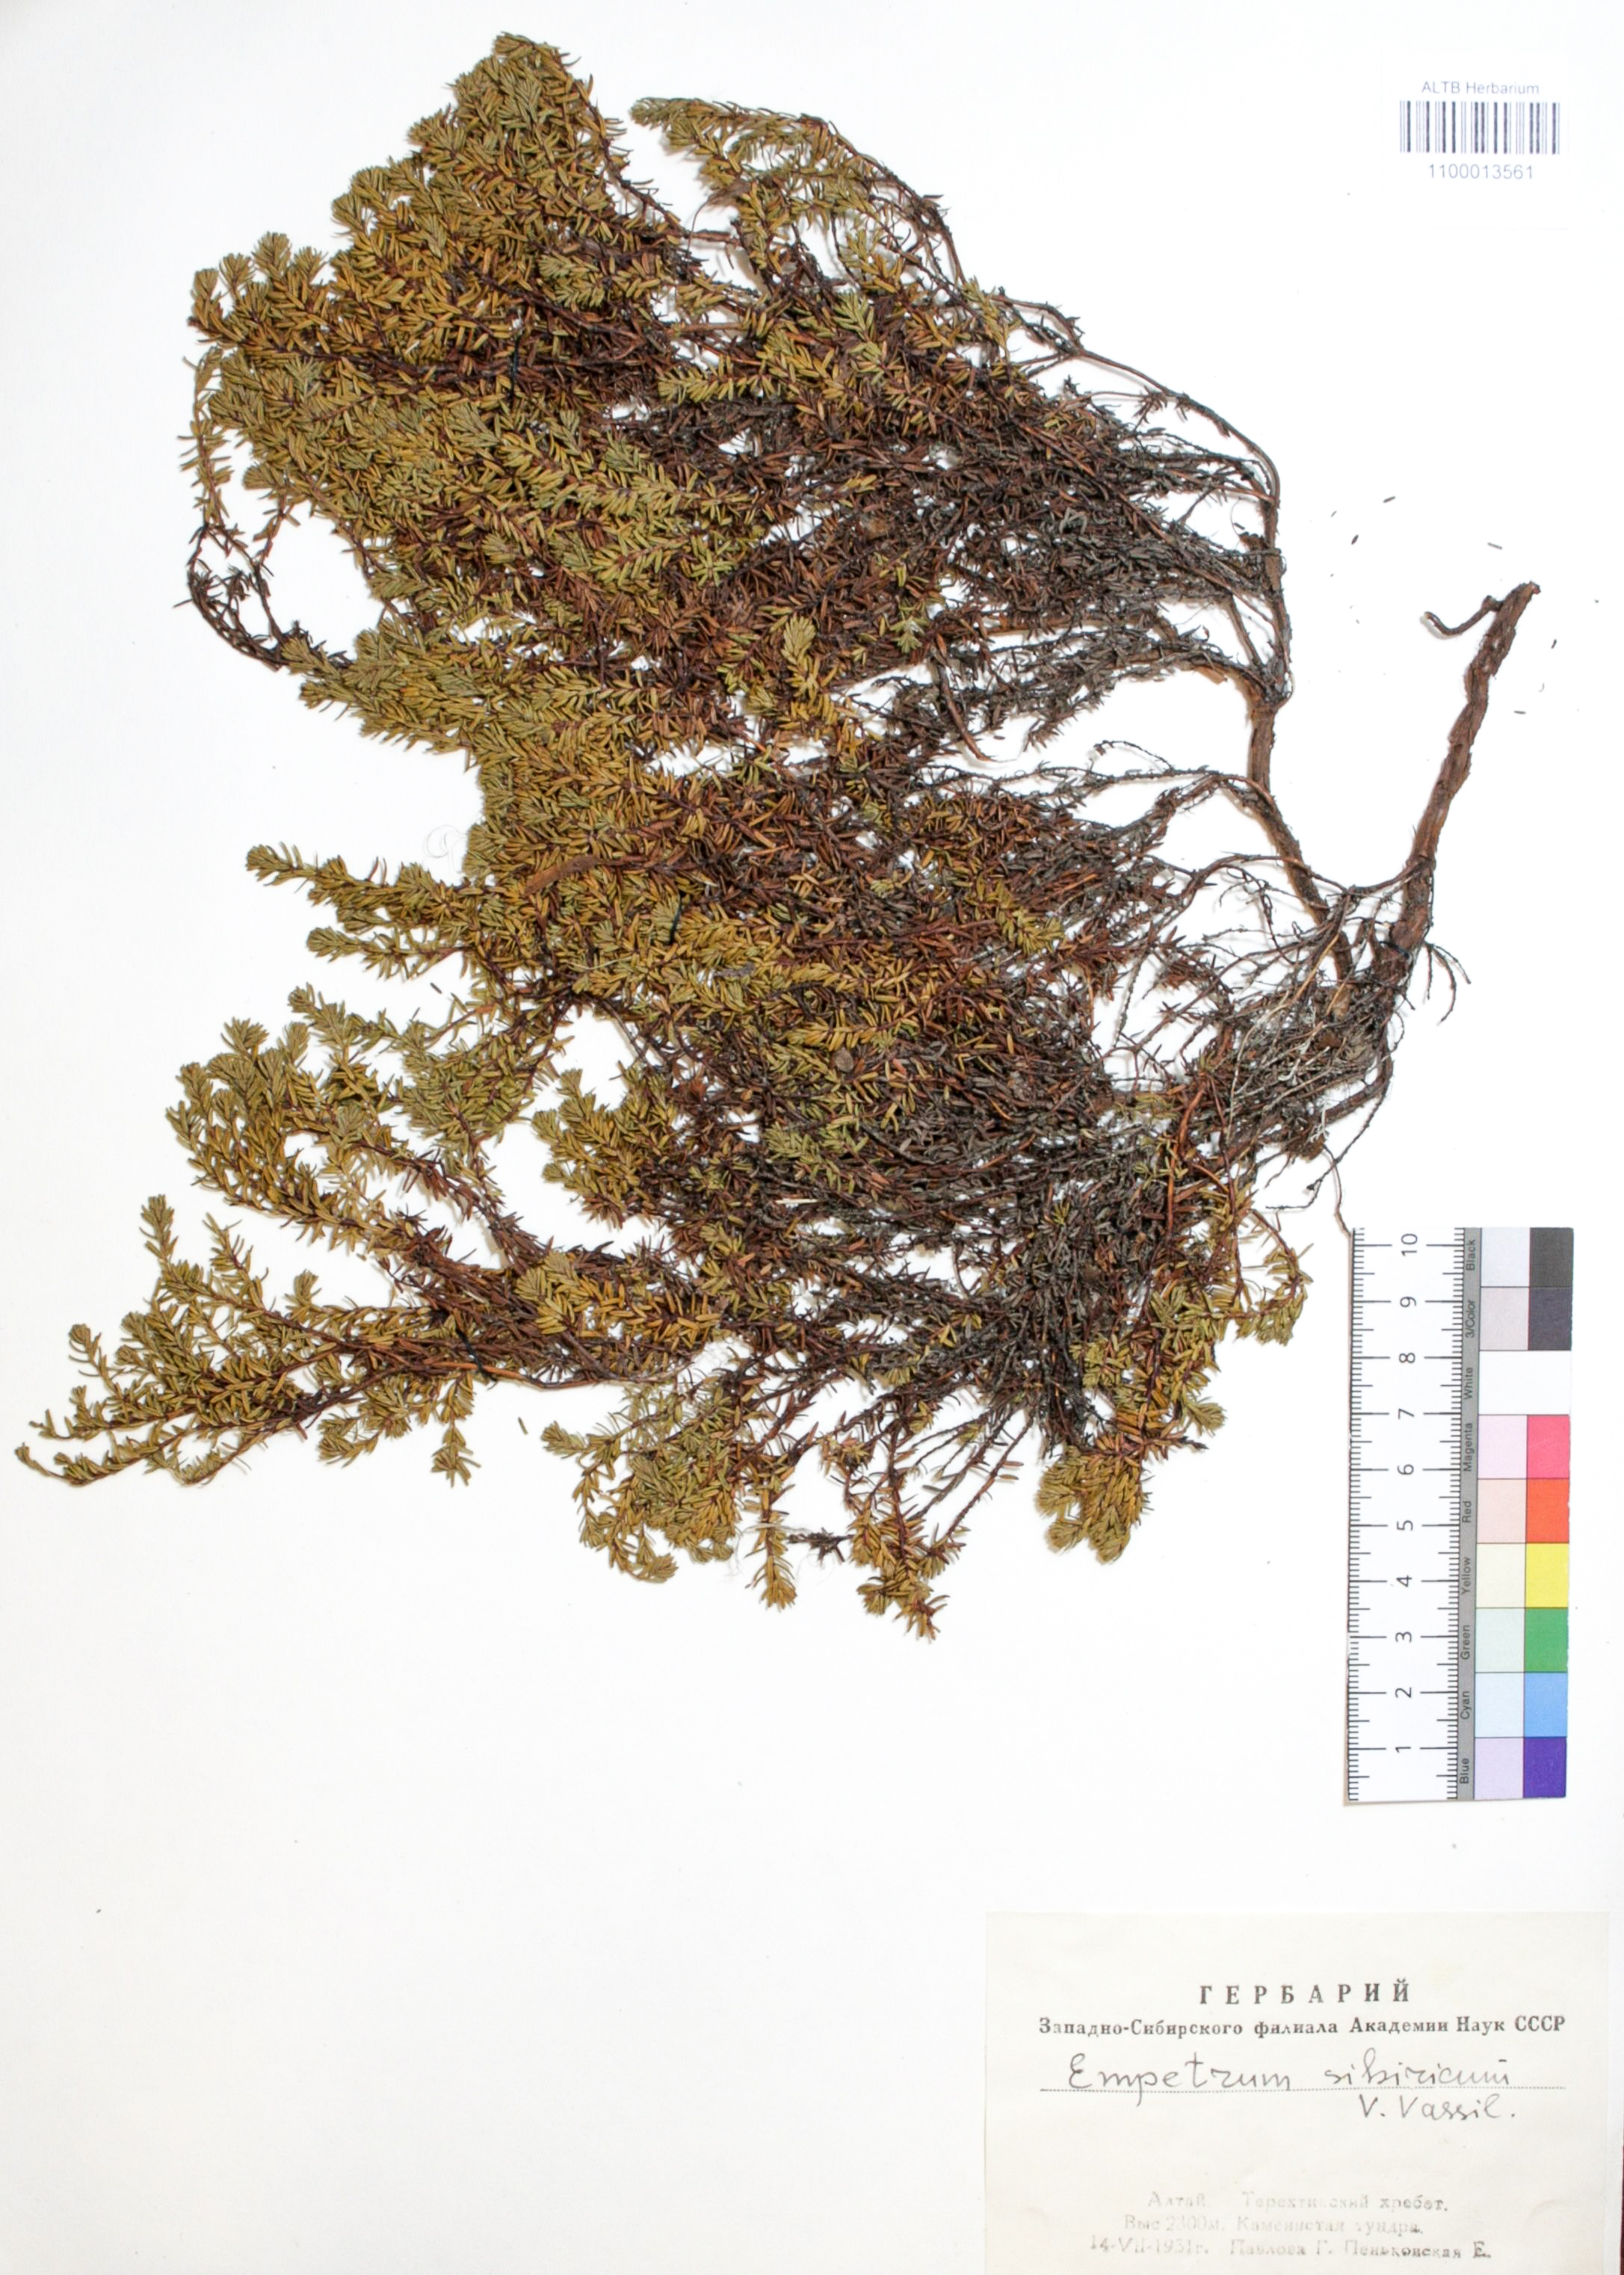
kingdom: Plantae
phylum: Tracheophyta
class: Magnoliopsida
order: Ericales
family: Ericaceae
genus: Empetrum
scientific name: Empetrum nigrum
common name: Black crowberry
